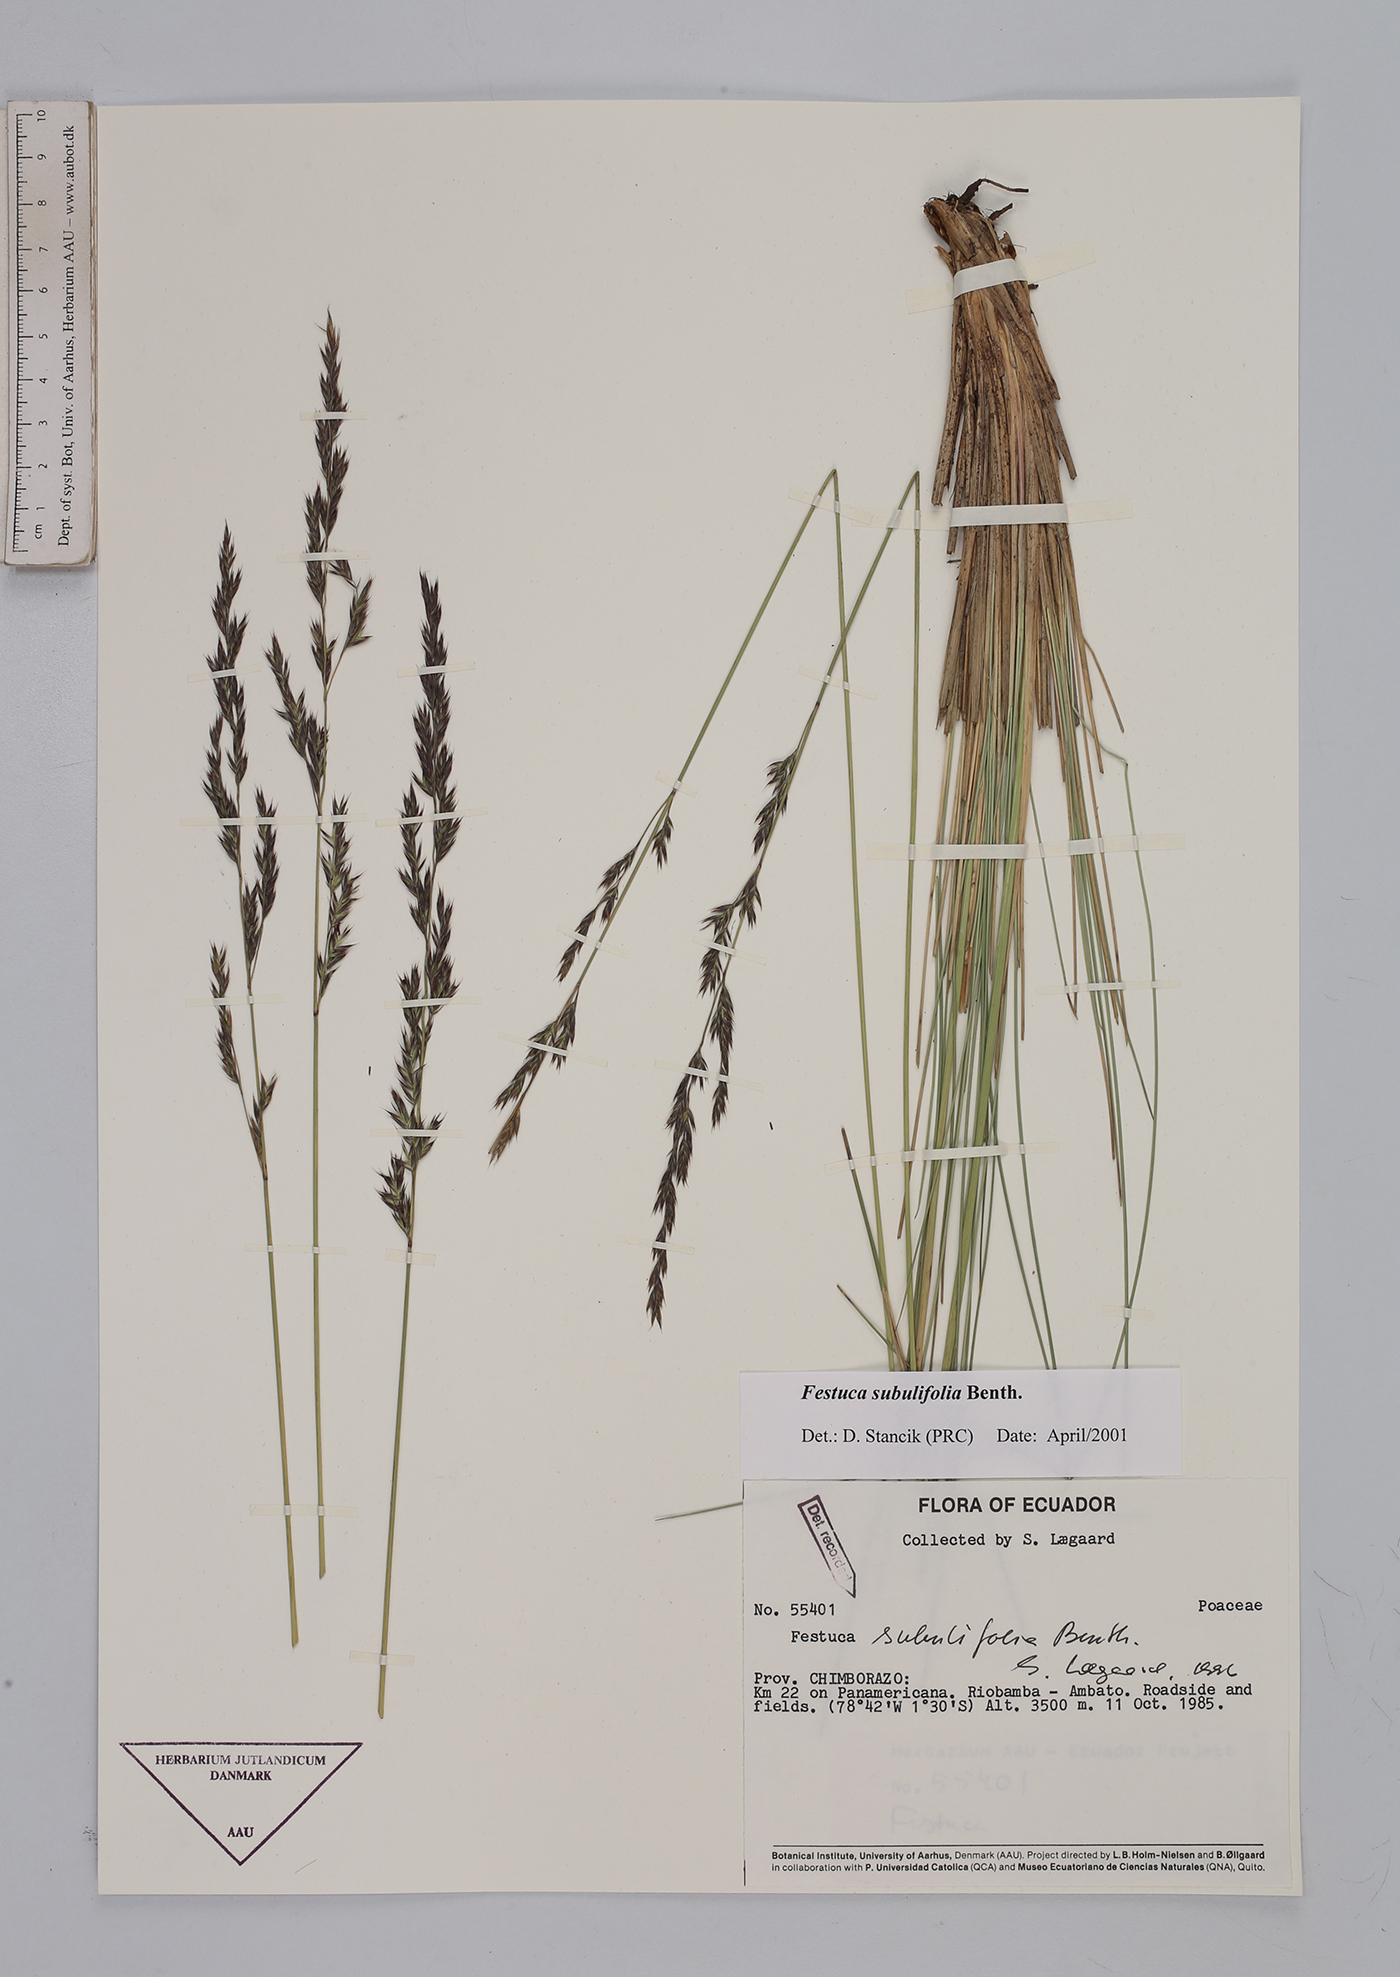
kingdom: Plantae
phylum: Tracheophyta
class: Liliopsida
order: Poales
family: Poaceae
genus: Festuca
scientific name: Festuca subulifolia
